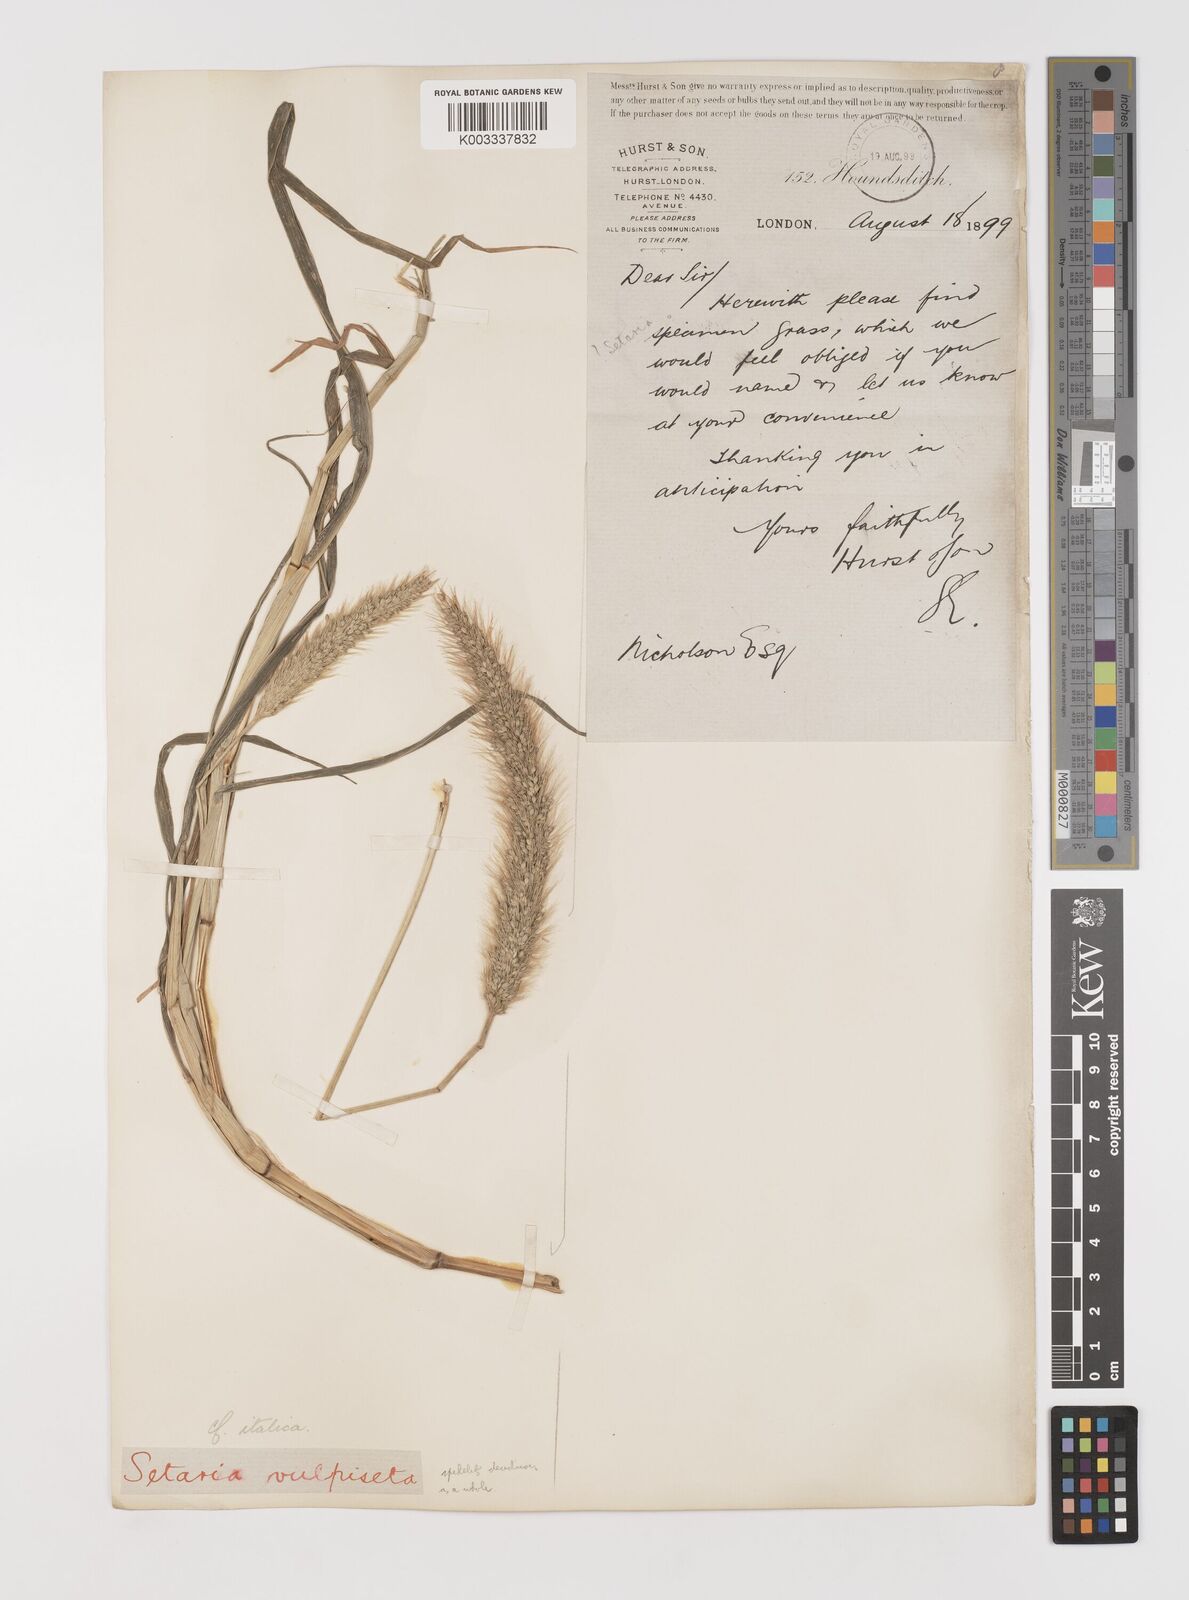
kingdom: Plantae
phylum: Tracheophyta
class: Liliopsida
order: Poales
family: Poaceae
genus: Setaria
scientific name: Setaria viridis
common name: Green bristlegrass
